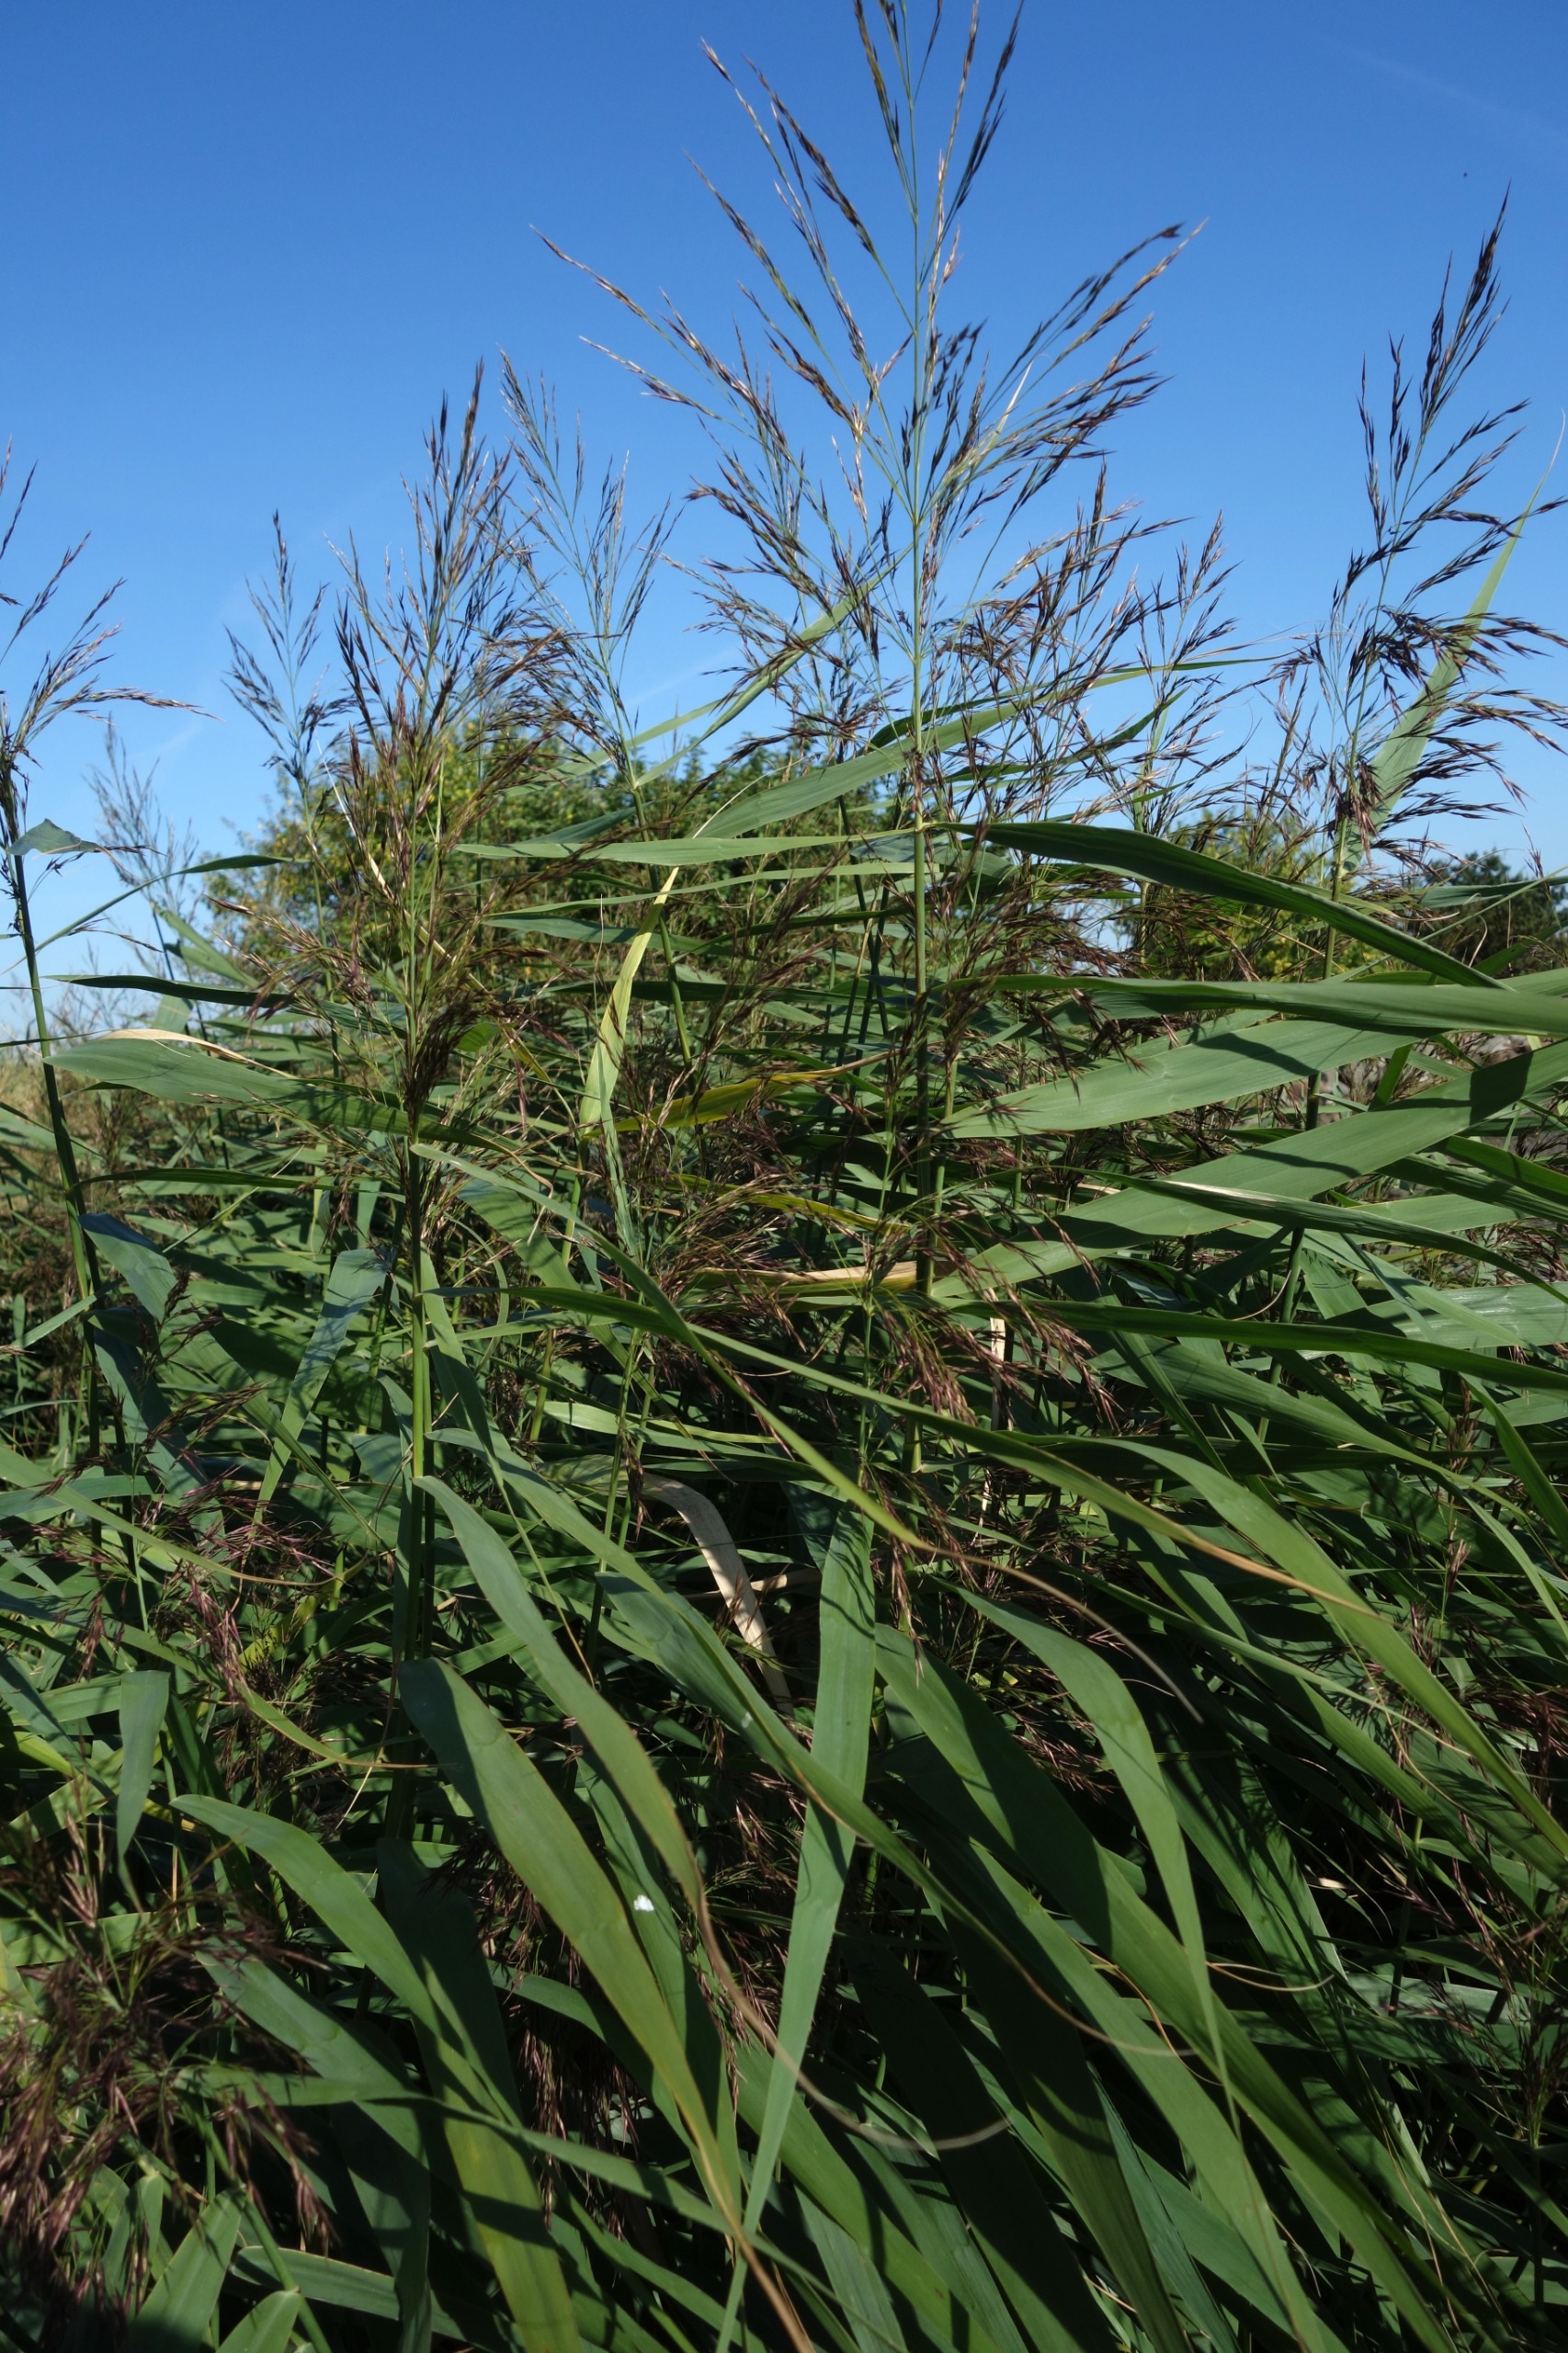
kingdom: Plantae
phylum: Tracheophyta
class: Liliopsida
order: Poales
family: Poaceae
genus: Phragmites
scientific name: Phragmites australis
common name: Tagrør
